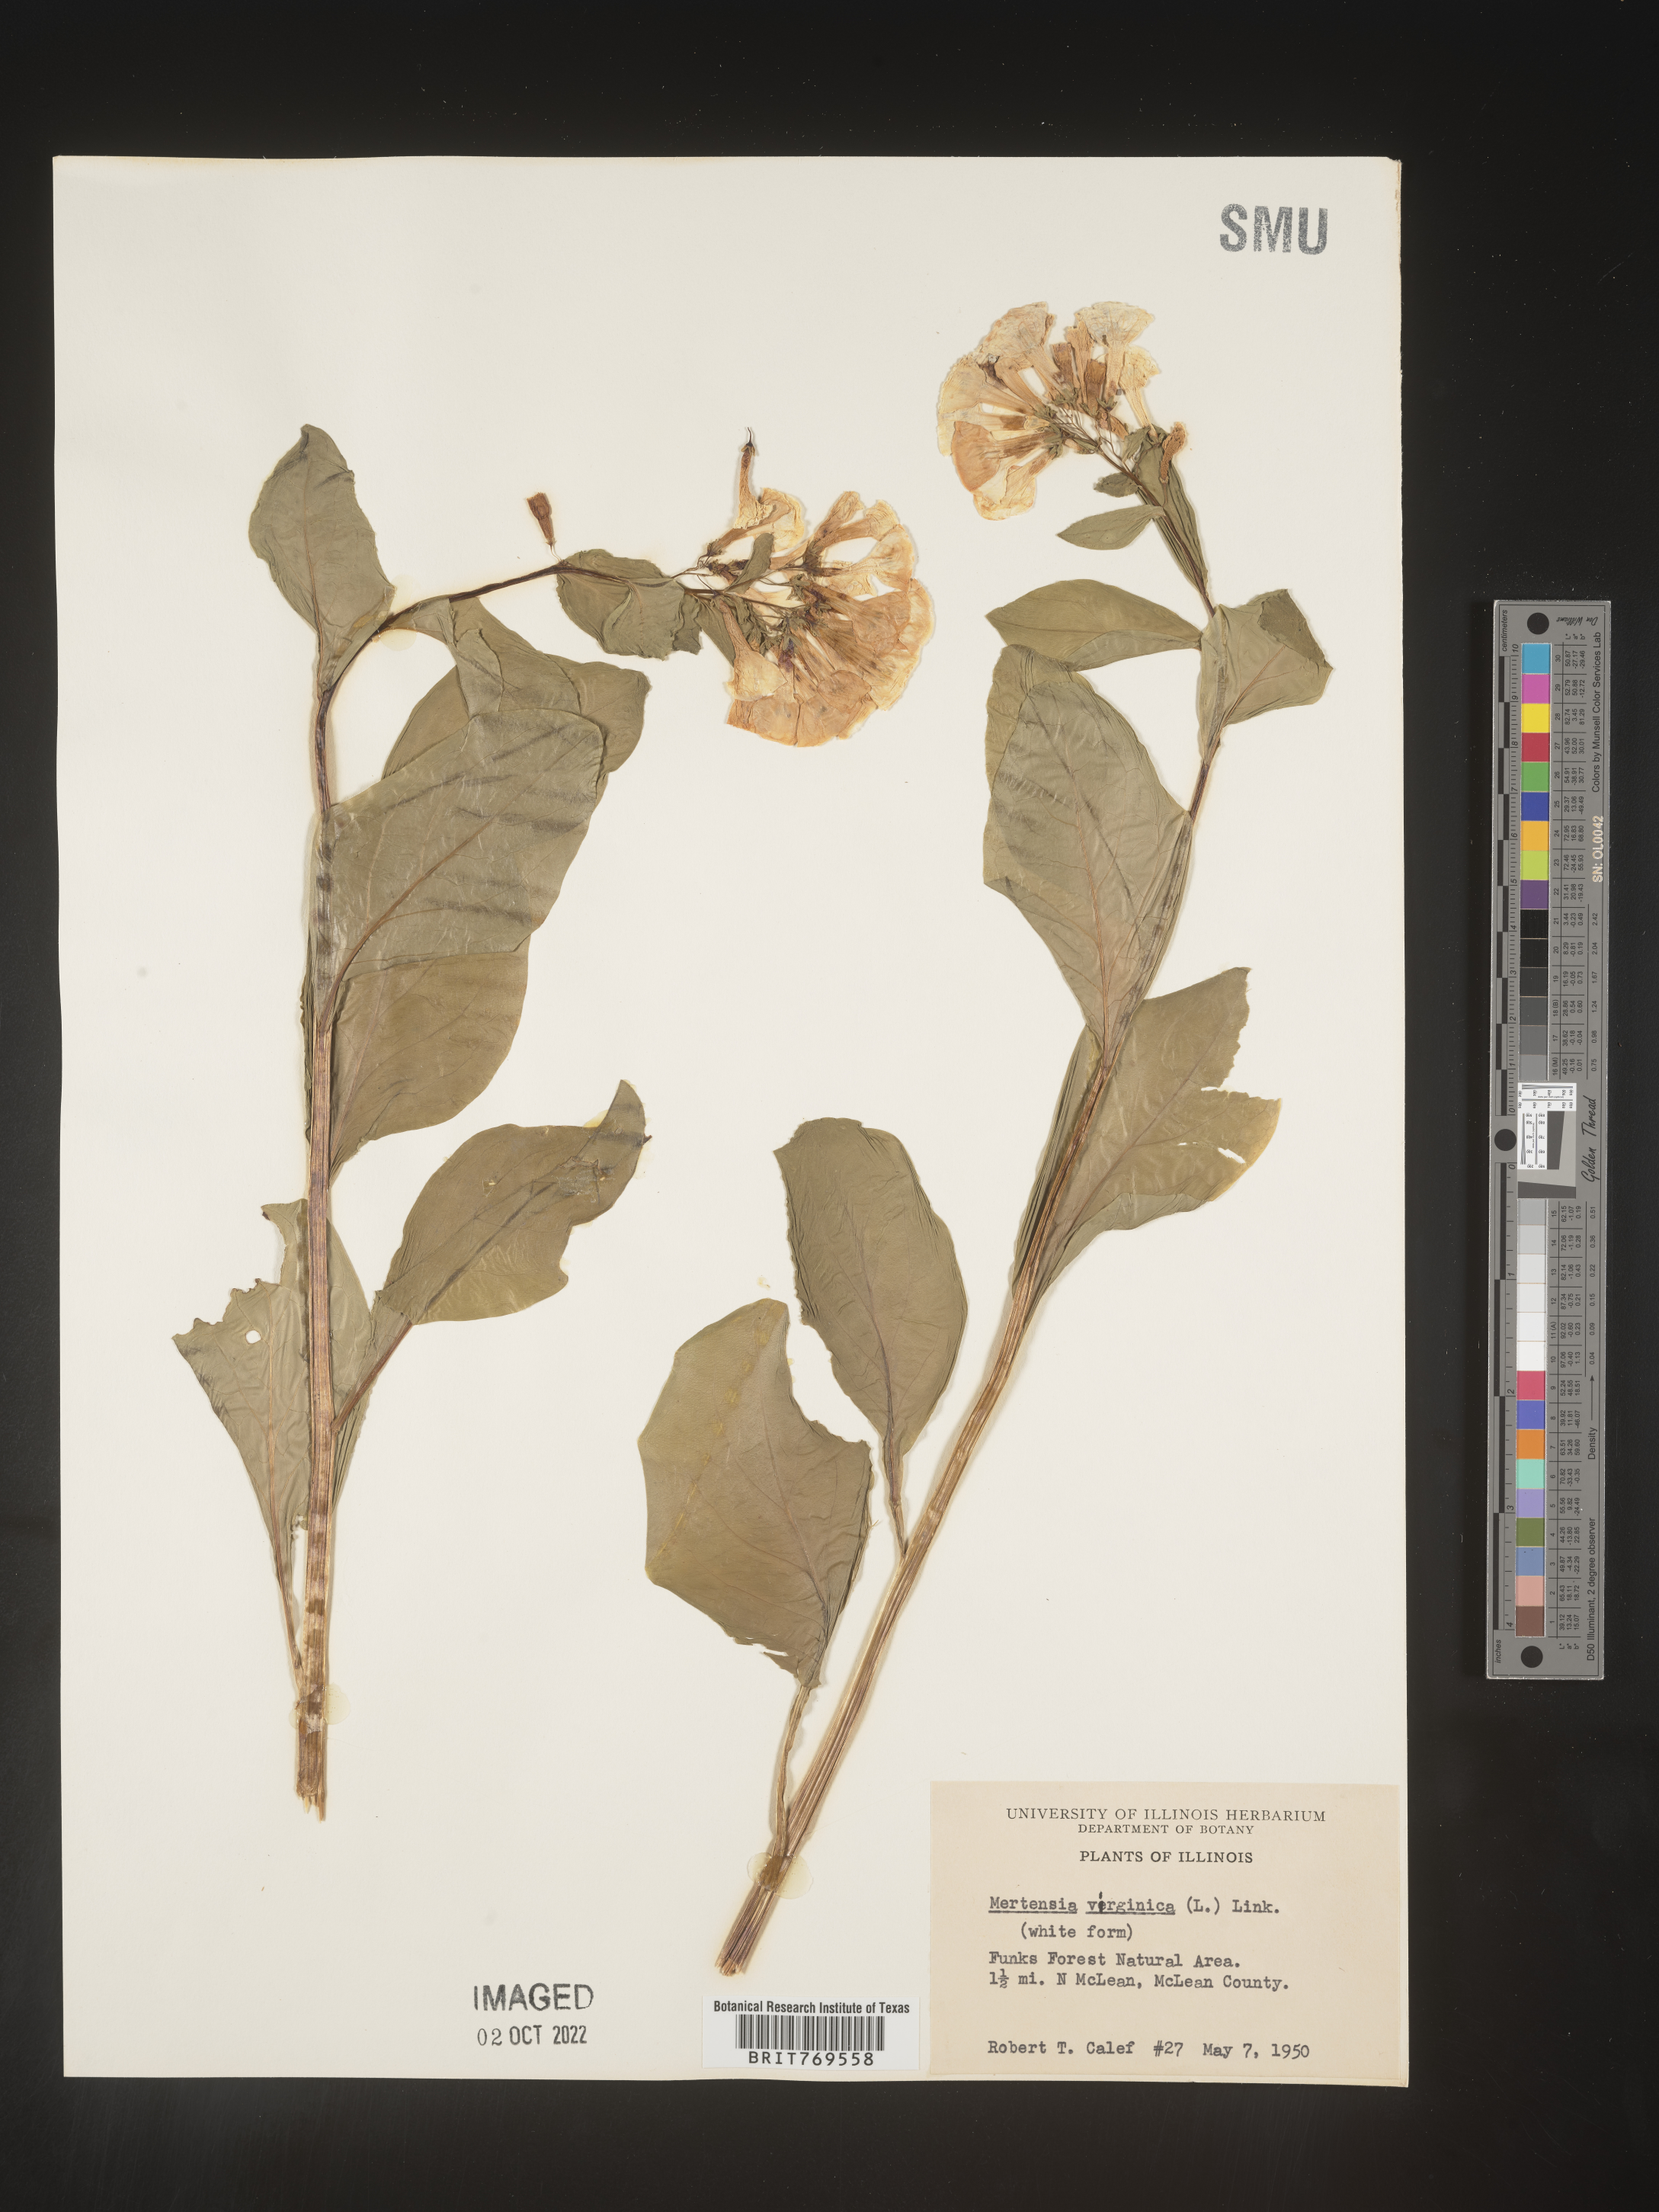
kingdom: Plantae
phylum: Tracheophyta
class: Magnoliopsida
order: Boraginales
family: Boraginaceae
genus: Mertensia
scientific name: Mertensia virginica
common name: Virginia bluebells
